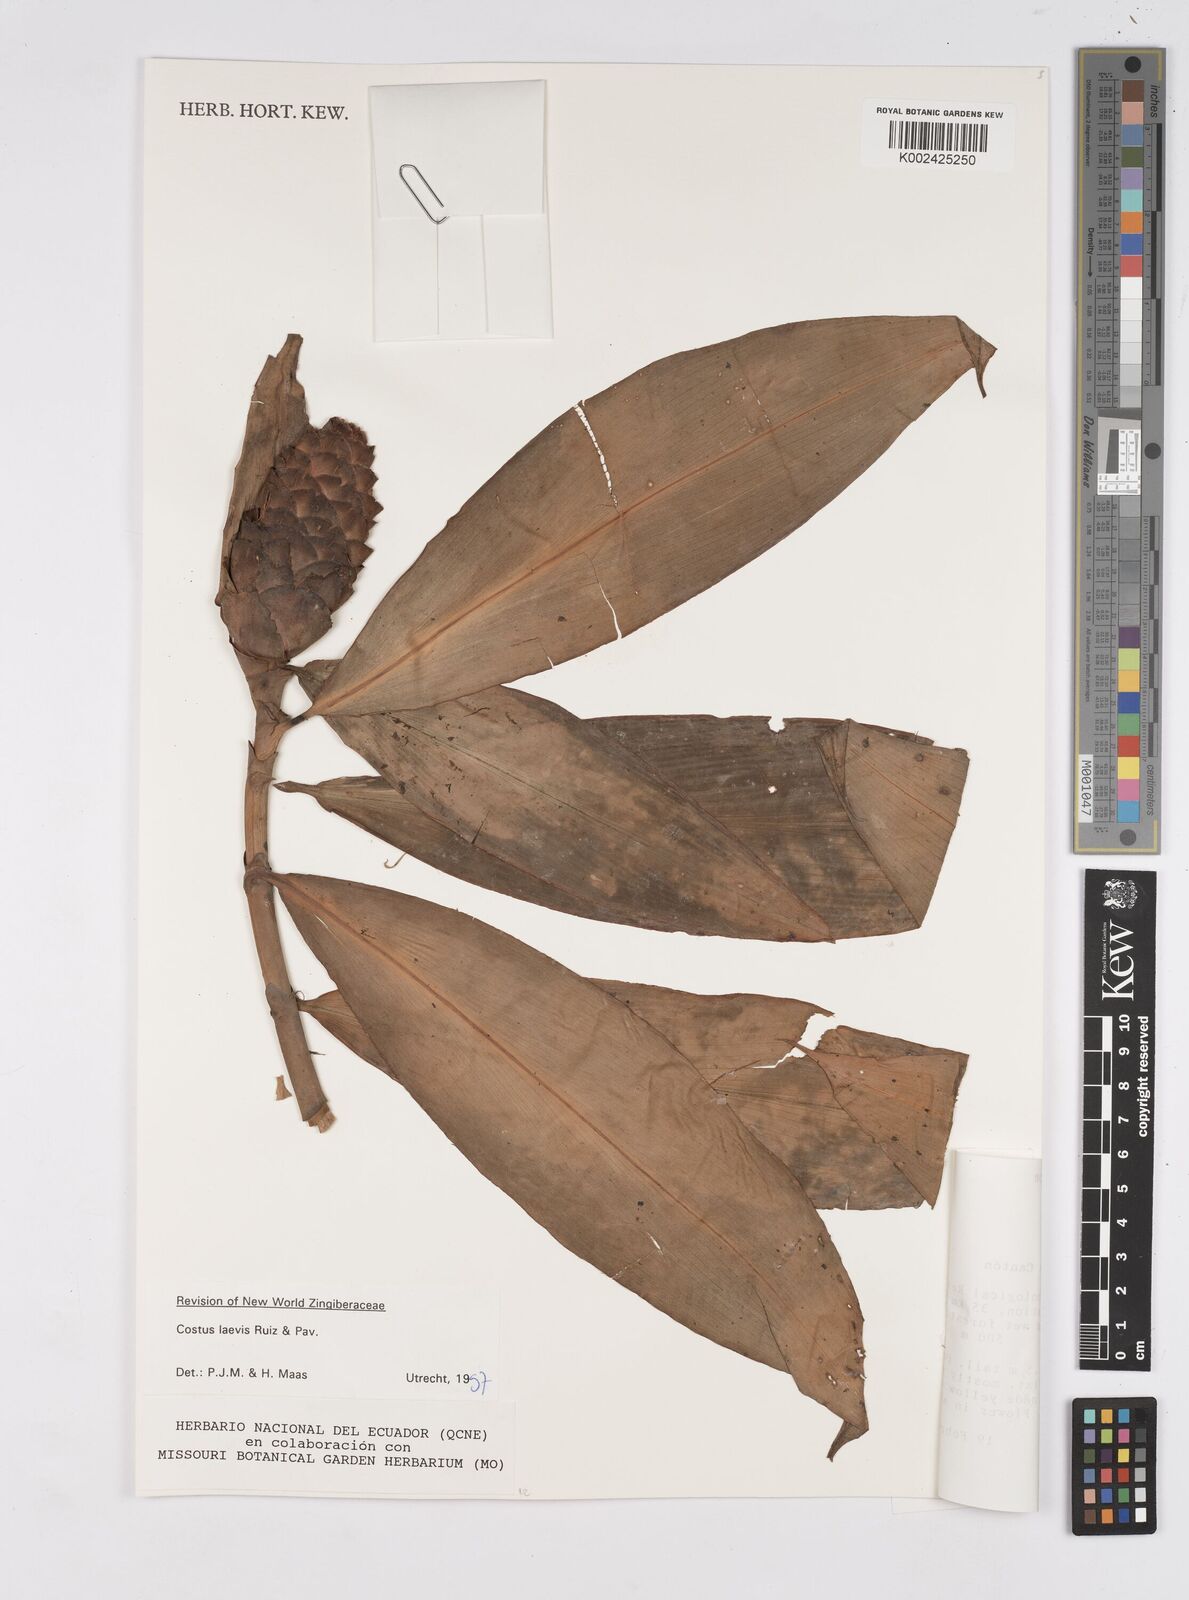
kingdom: Plantae
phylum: Tracheophyta
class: Liliopsida
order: Zingiberales
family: Costaceae
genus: Costus
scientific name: Costus laevis
